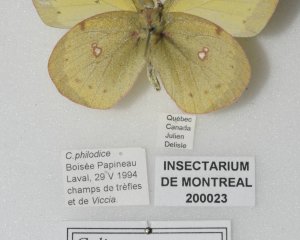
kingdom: Animalia
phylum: Arthropoda
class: Insecta
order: Lepidoptera
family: Pieridae
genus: Colias
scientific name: Colias philodice
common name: Clouded Sulphur
